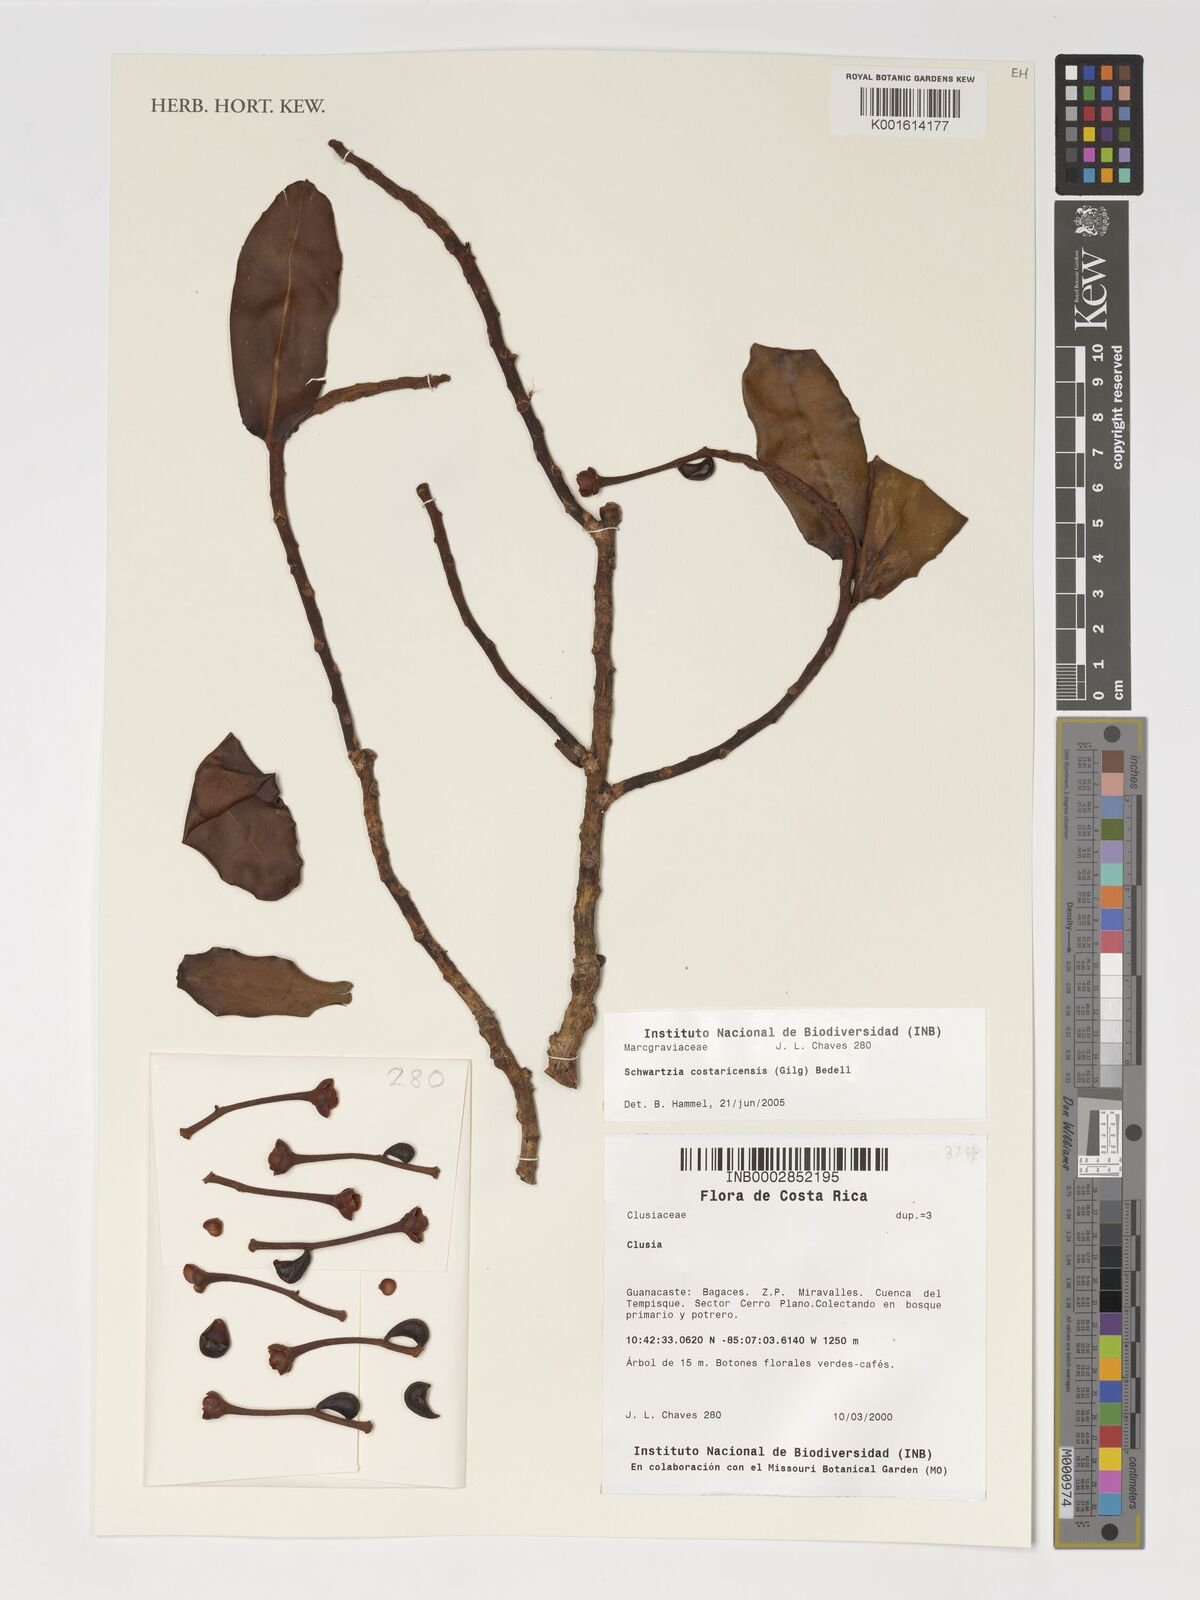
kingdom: Plantae
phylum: Tracheophyta
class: Magnoliopsida
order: Malpighiales
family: Clusiaceae
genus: Clusia
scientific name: Clusia
